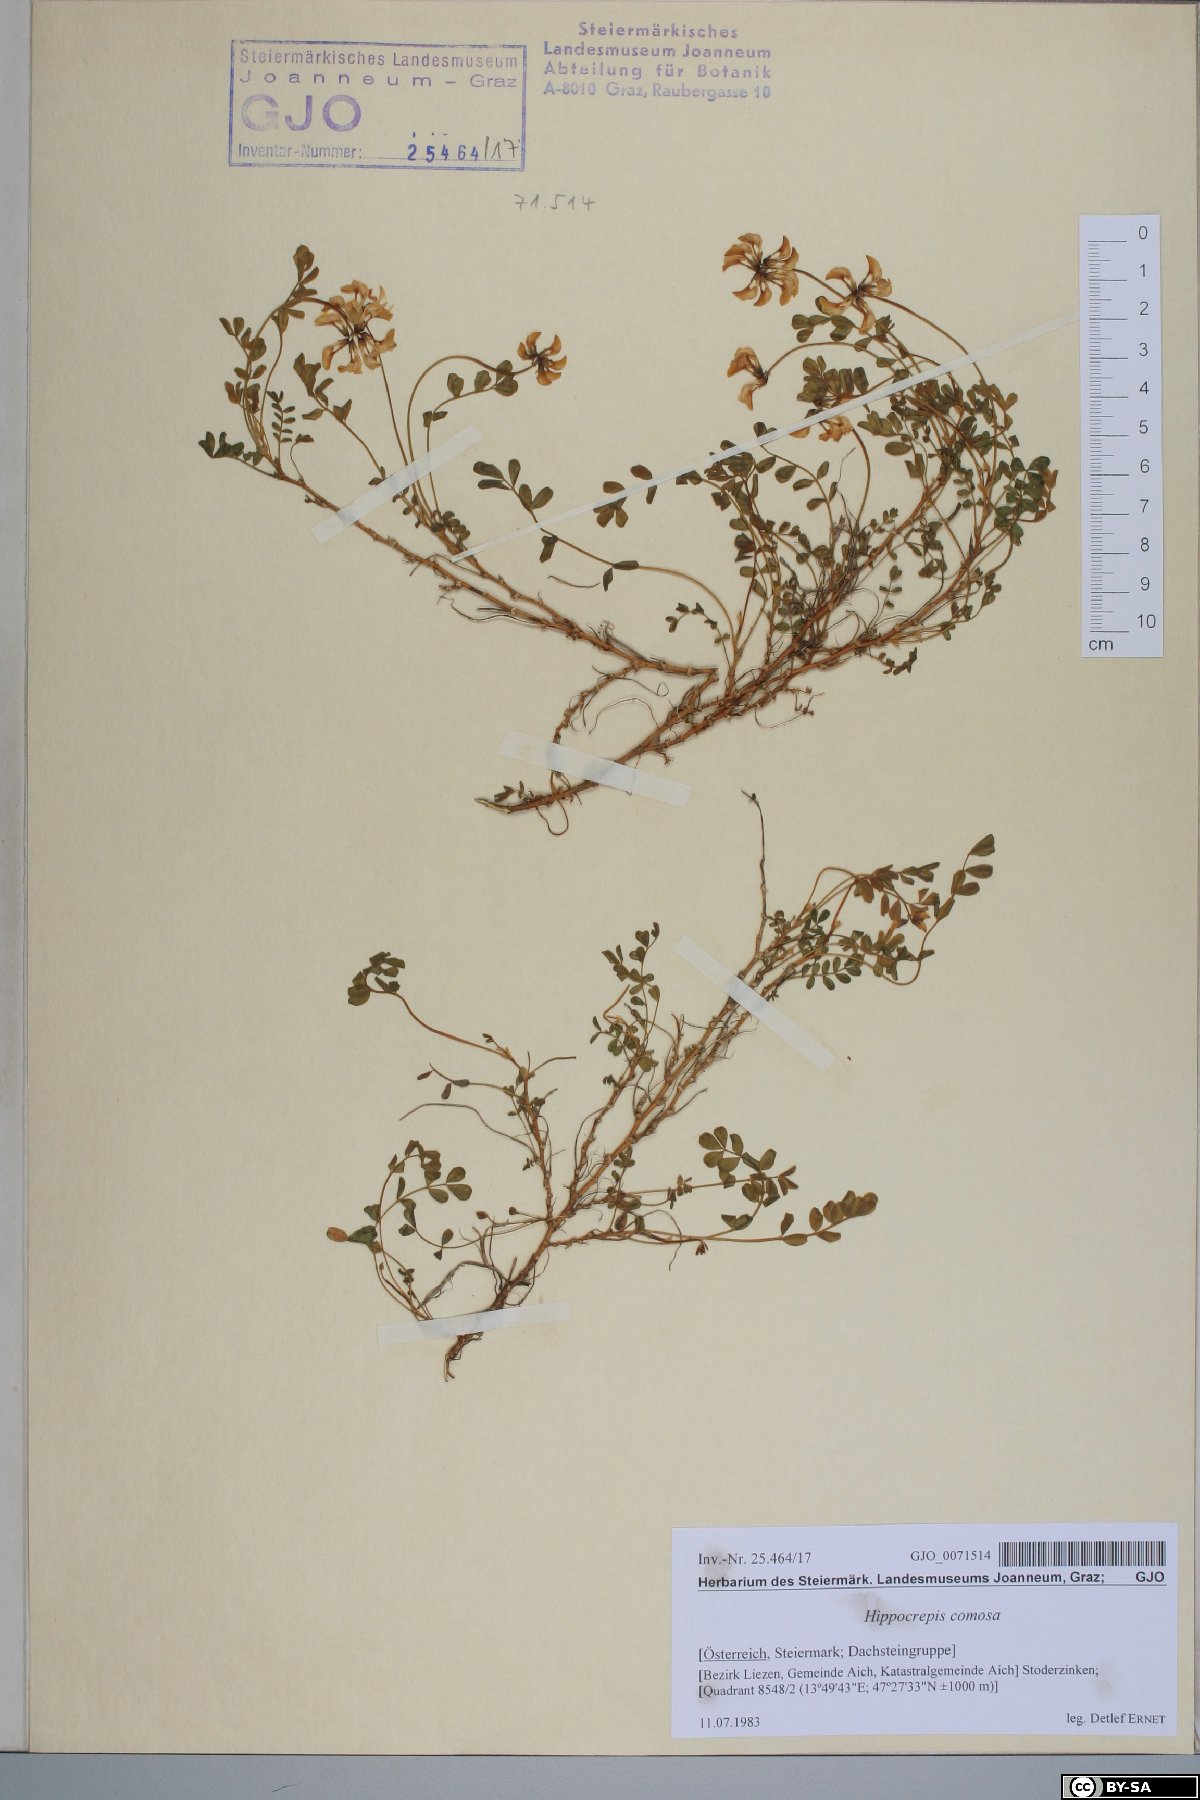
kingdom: Plantae
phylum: Tracheophyta
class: Magnoliopsida
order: Fabales
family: Fabaceae
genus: Hippocrepis
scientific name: Hippocrepis comosa
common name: Horseshoe vetch
